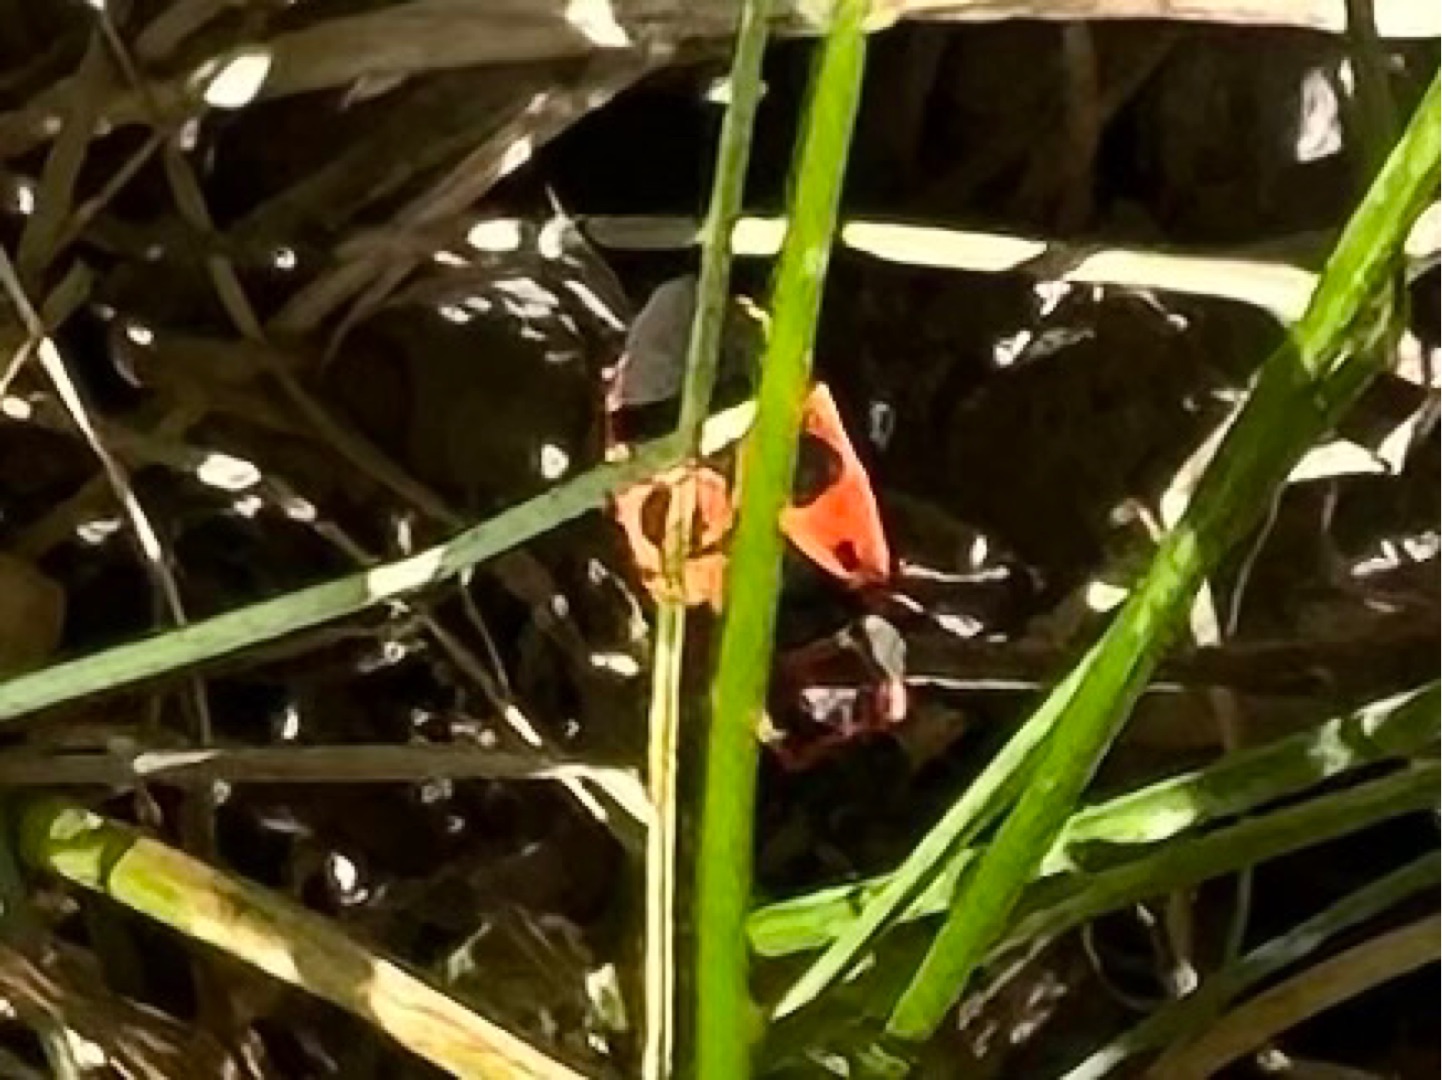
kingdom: Animalia
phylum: Arthropoda
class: Insecta
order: Hemiptera
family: Pyrrhocoridae
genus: Pyrrhocoris
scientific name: Pyrrhocoris apterus
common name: Ildtæge
